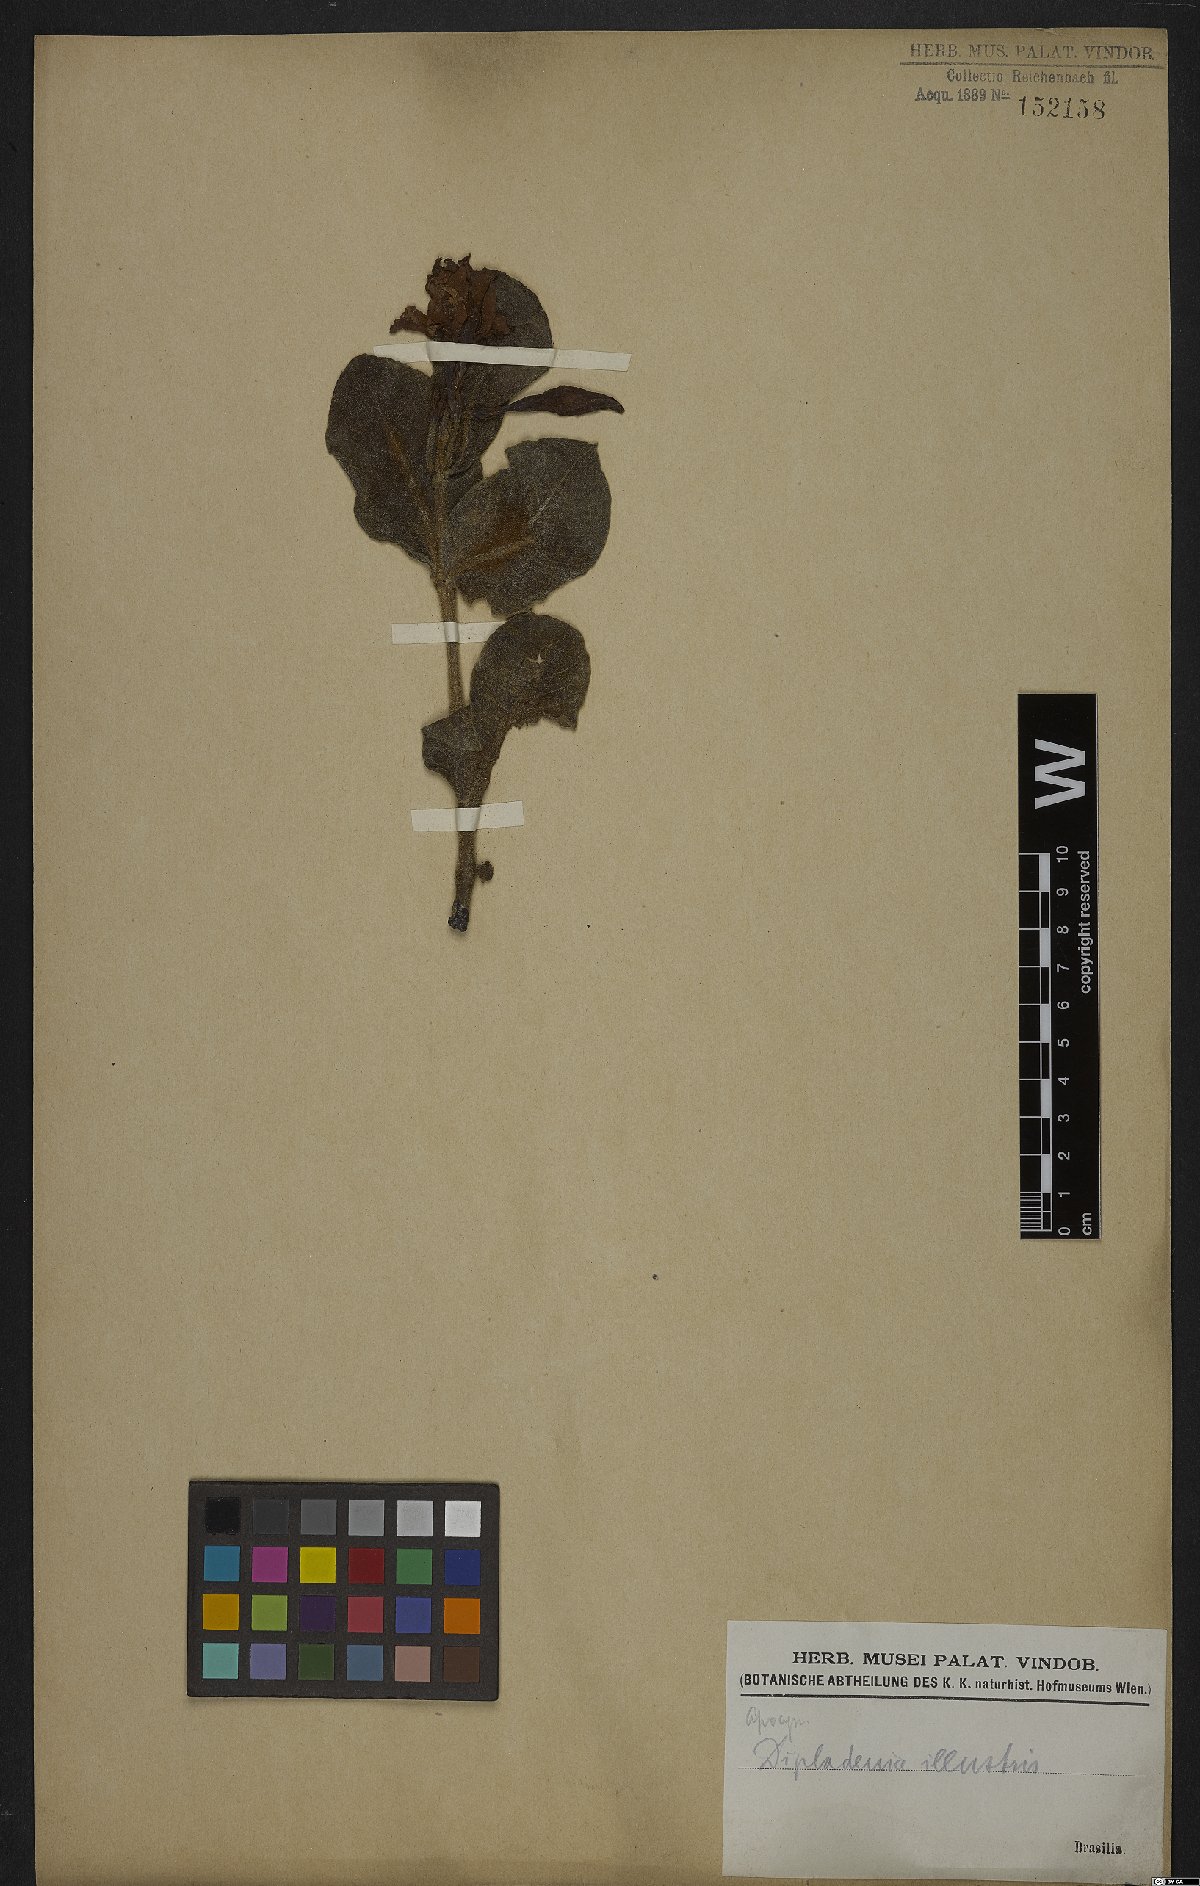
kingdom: Plantae
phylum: Tracheophyta
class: Magnoliopsida
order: Gentianales
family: Apocynaceae
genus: Mandevilla
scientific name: Mandevilla illustris
